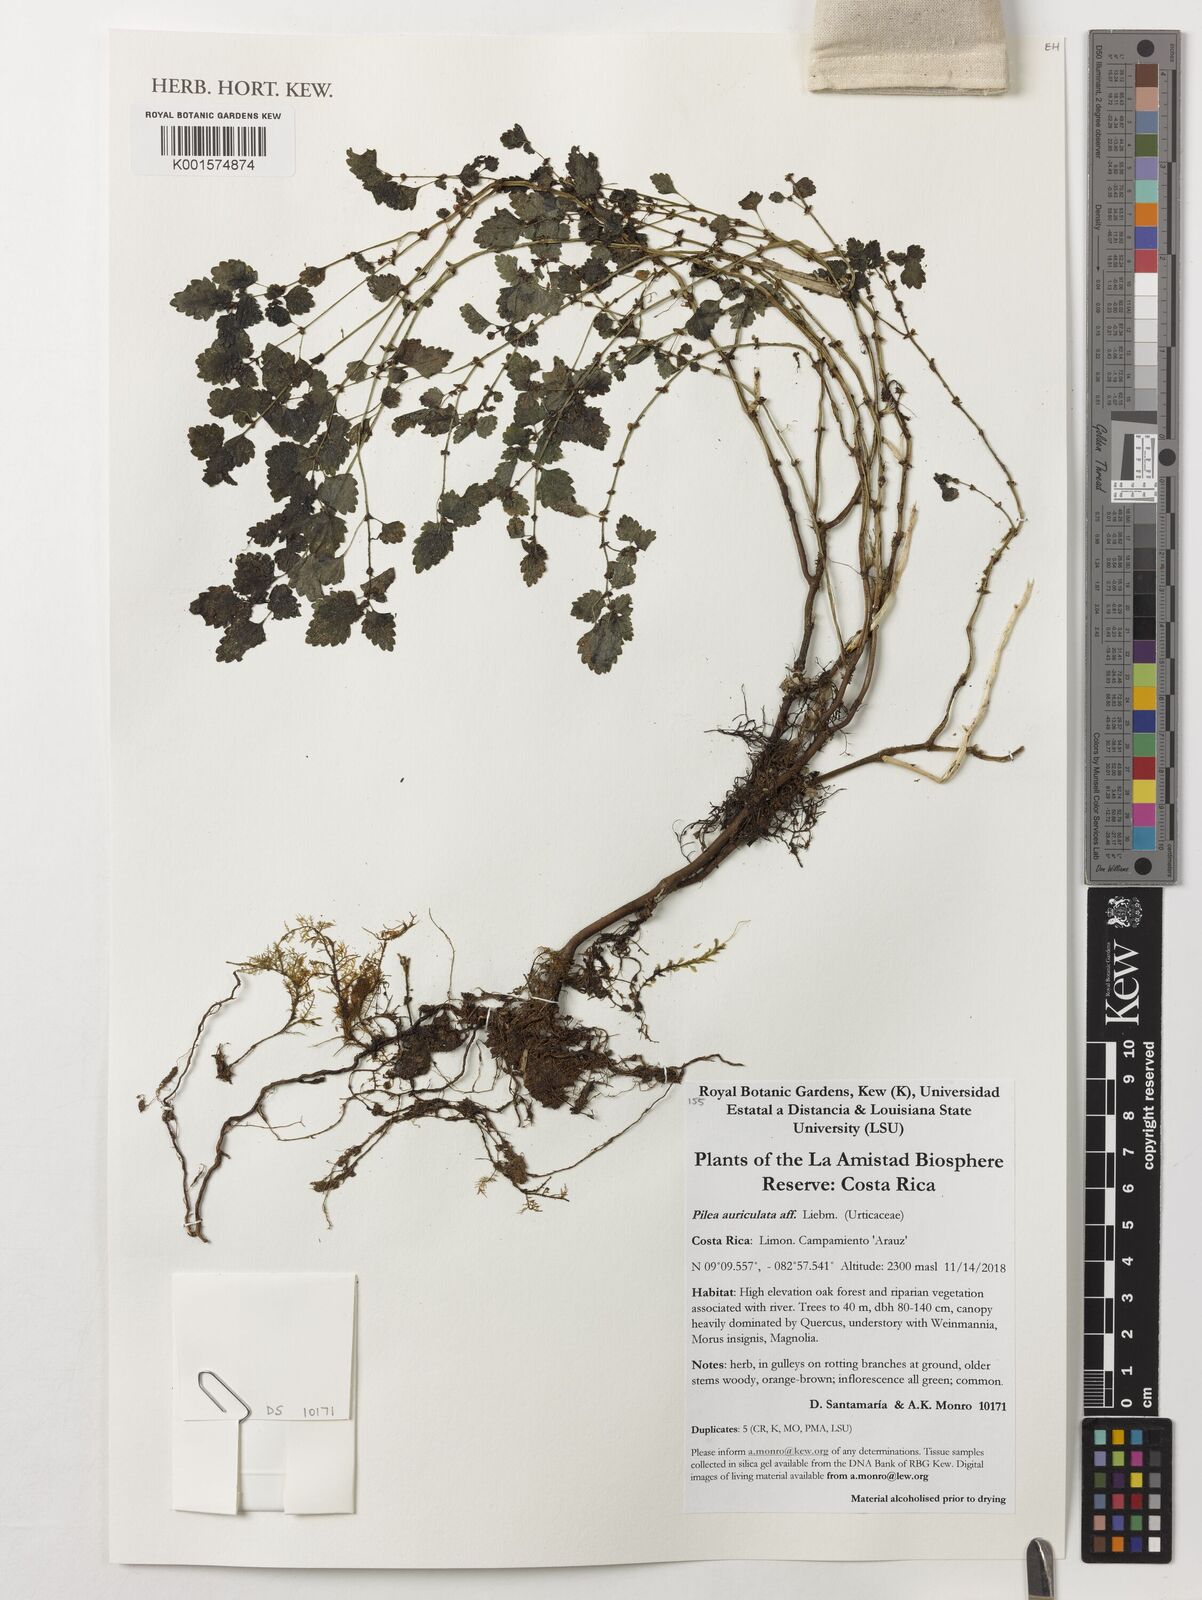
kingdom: Plantae
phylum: Tracheophyta
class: Magnoliopsida
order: Rosales
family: Urticaceae
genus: Pilea
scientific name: Pilea auriculata
